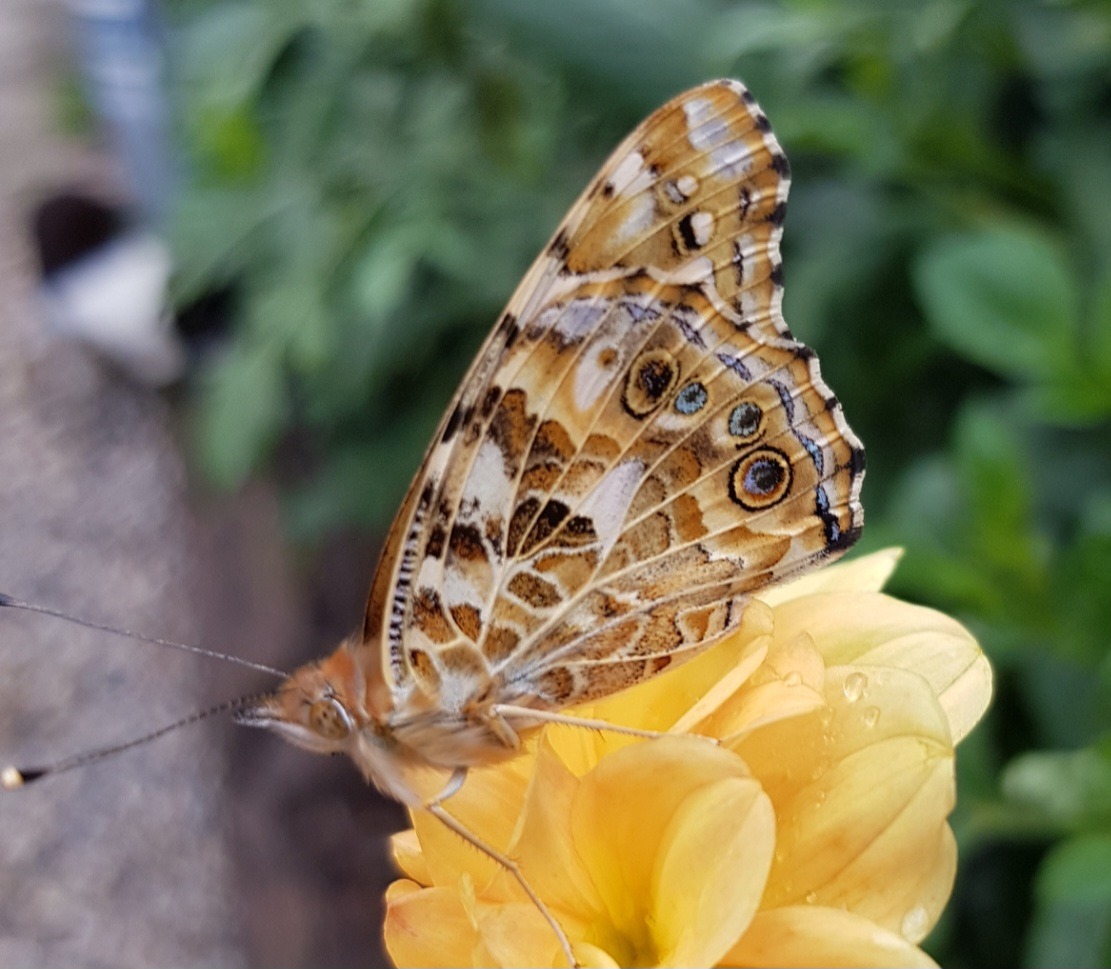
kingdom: Animalia
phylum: Arthropoda
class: Insecta
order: Lepidoptera
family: Nymphalidae
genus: Vanessa
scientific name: Vanessa cardui
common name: Tidselsommerfugl
